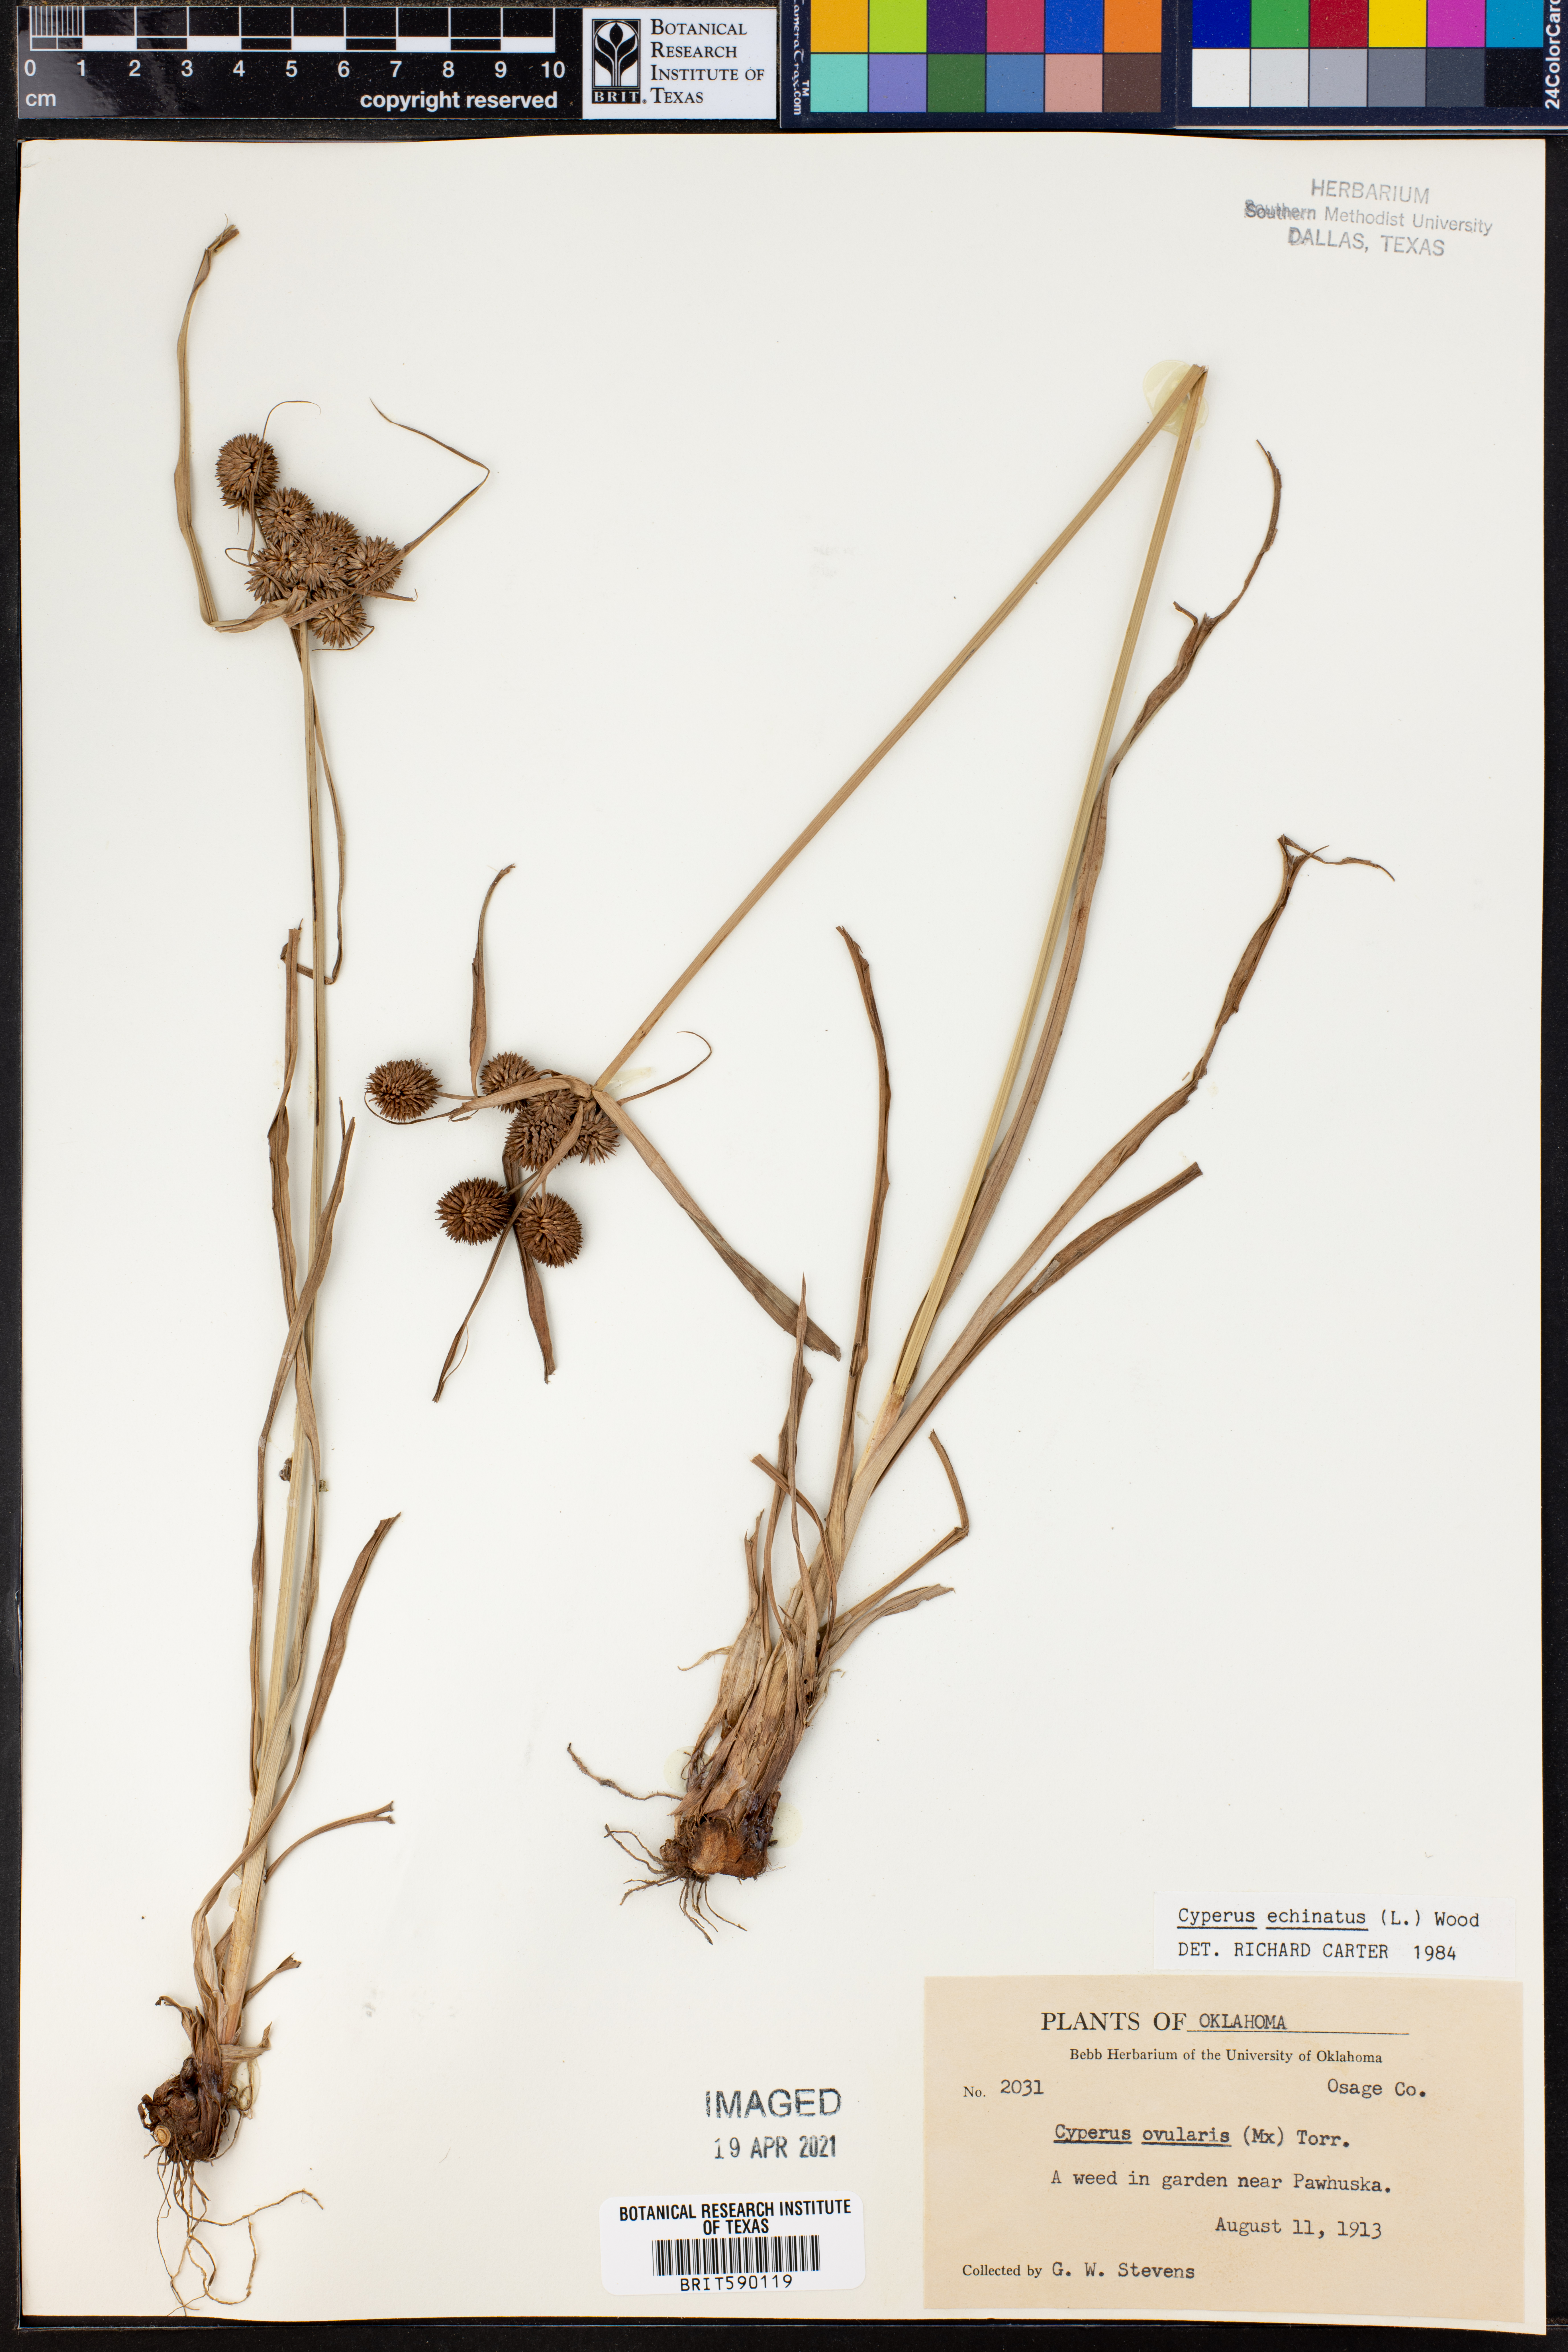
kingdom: Plantae
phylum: Tracheophyta
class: Liliopsida
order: Poales
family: Cyperaceae
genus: Cyperus
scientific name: Cyperus echinatus
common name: Teasel sedge
